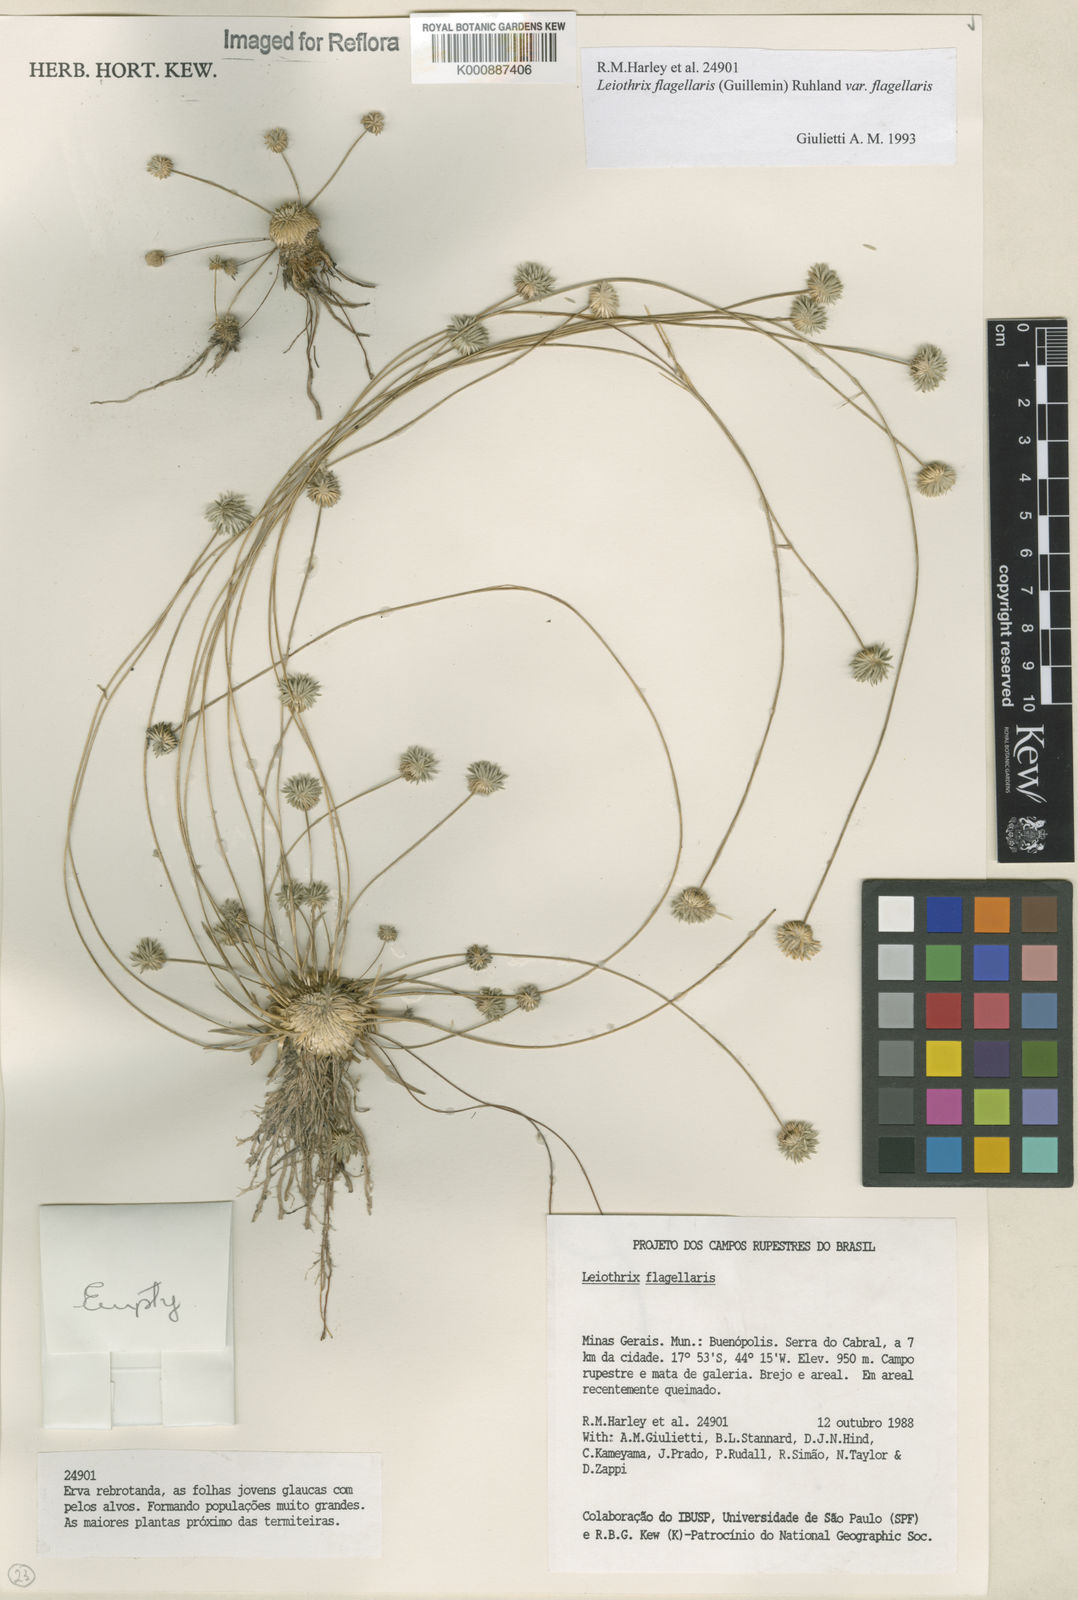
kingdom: Plantae
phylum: Tracheophyta
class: Liliopsida
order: Poales
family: Eriocaulaceae
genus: Leiothrix
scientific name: Leiothrix flagellaris
